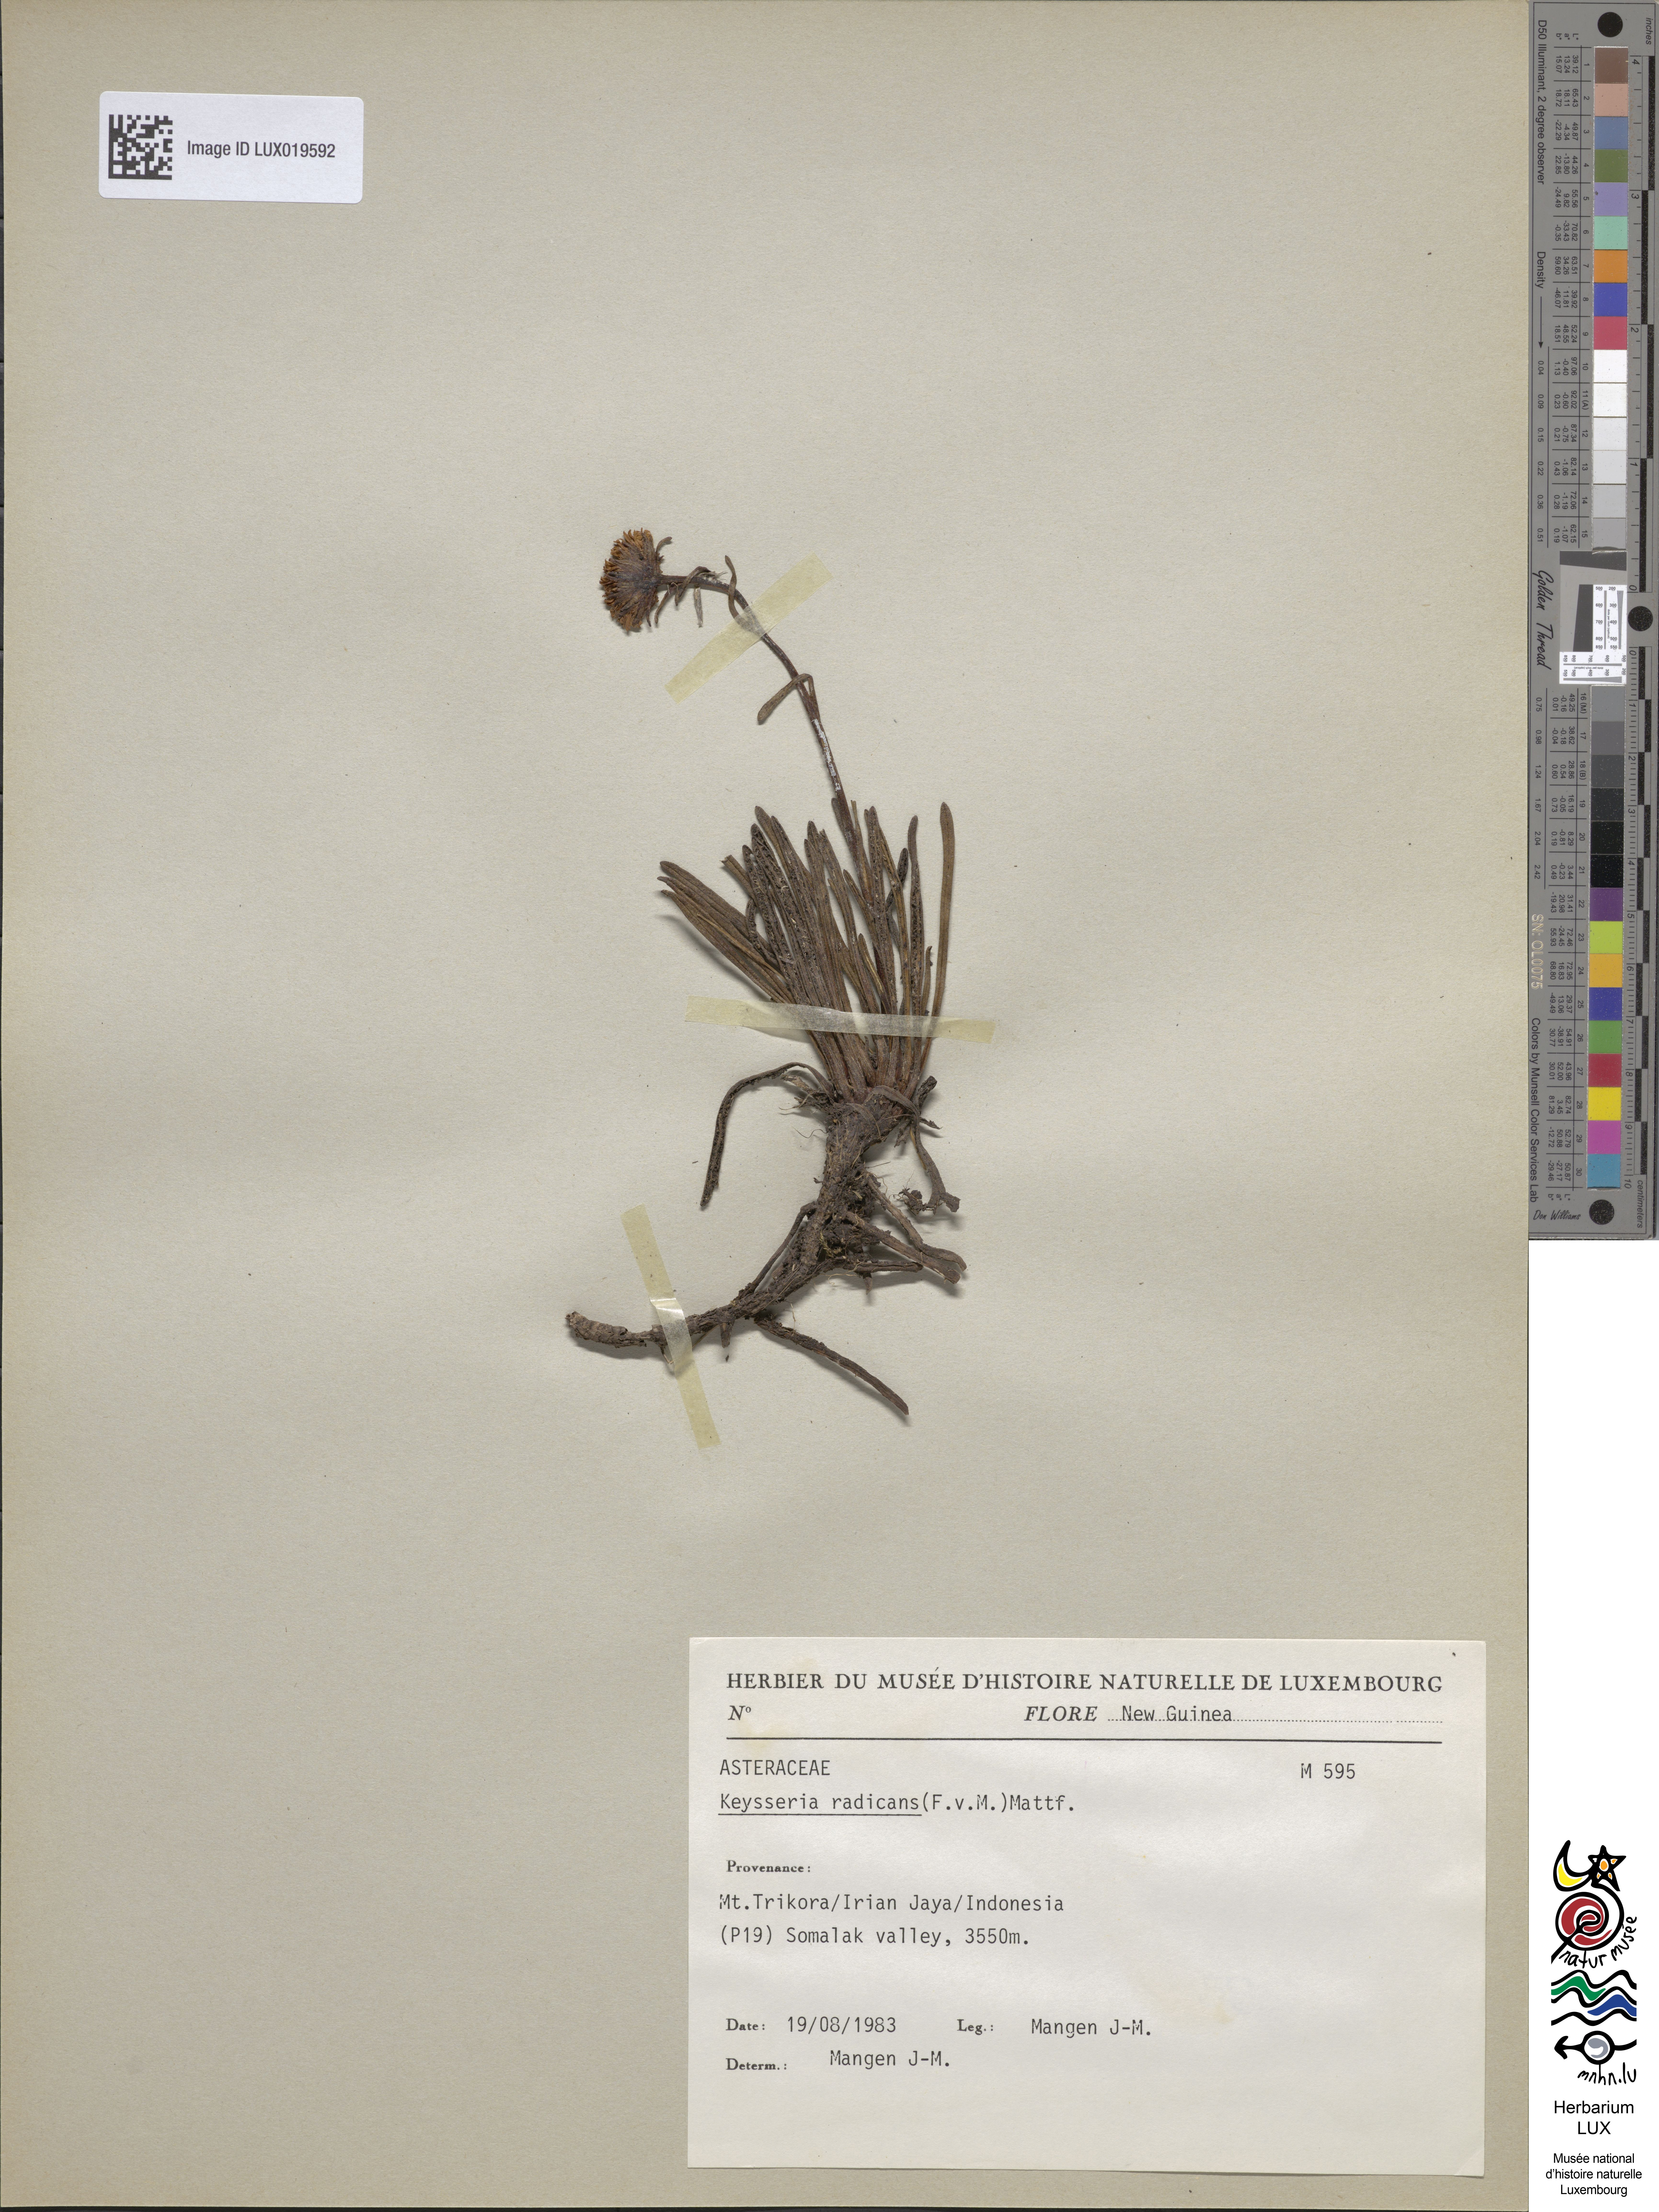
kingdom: Plantae
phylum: Tracheophyta
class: Magnoliopsida
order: Asterales
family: Asteraceae
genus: Keysseria
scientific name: Keysseria radicans
